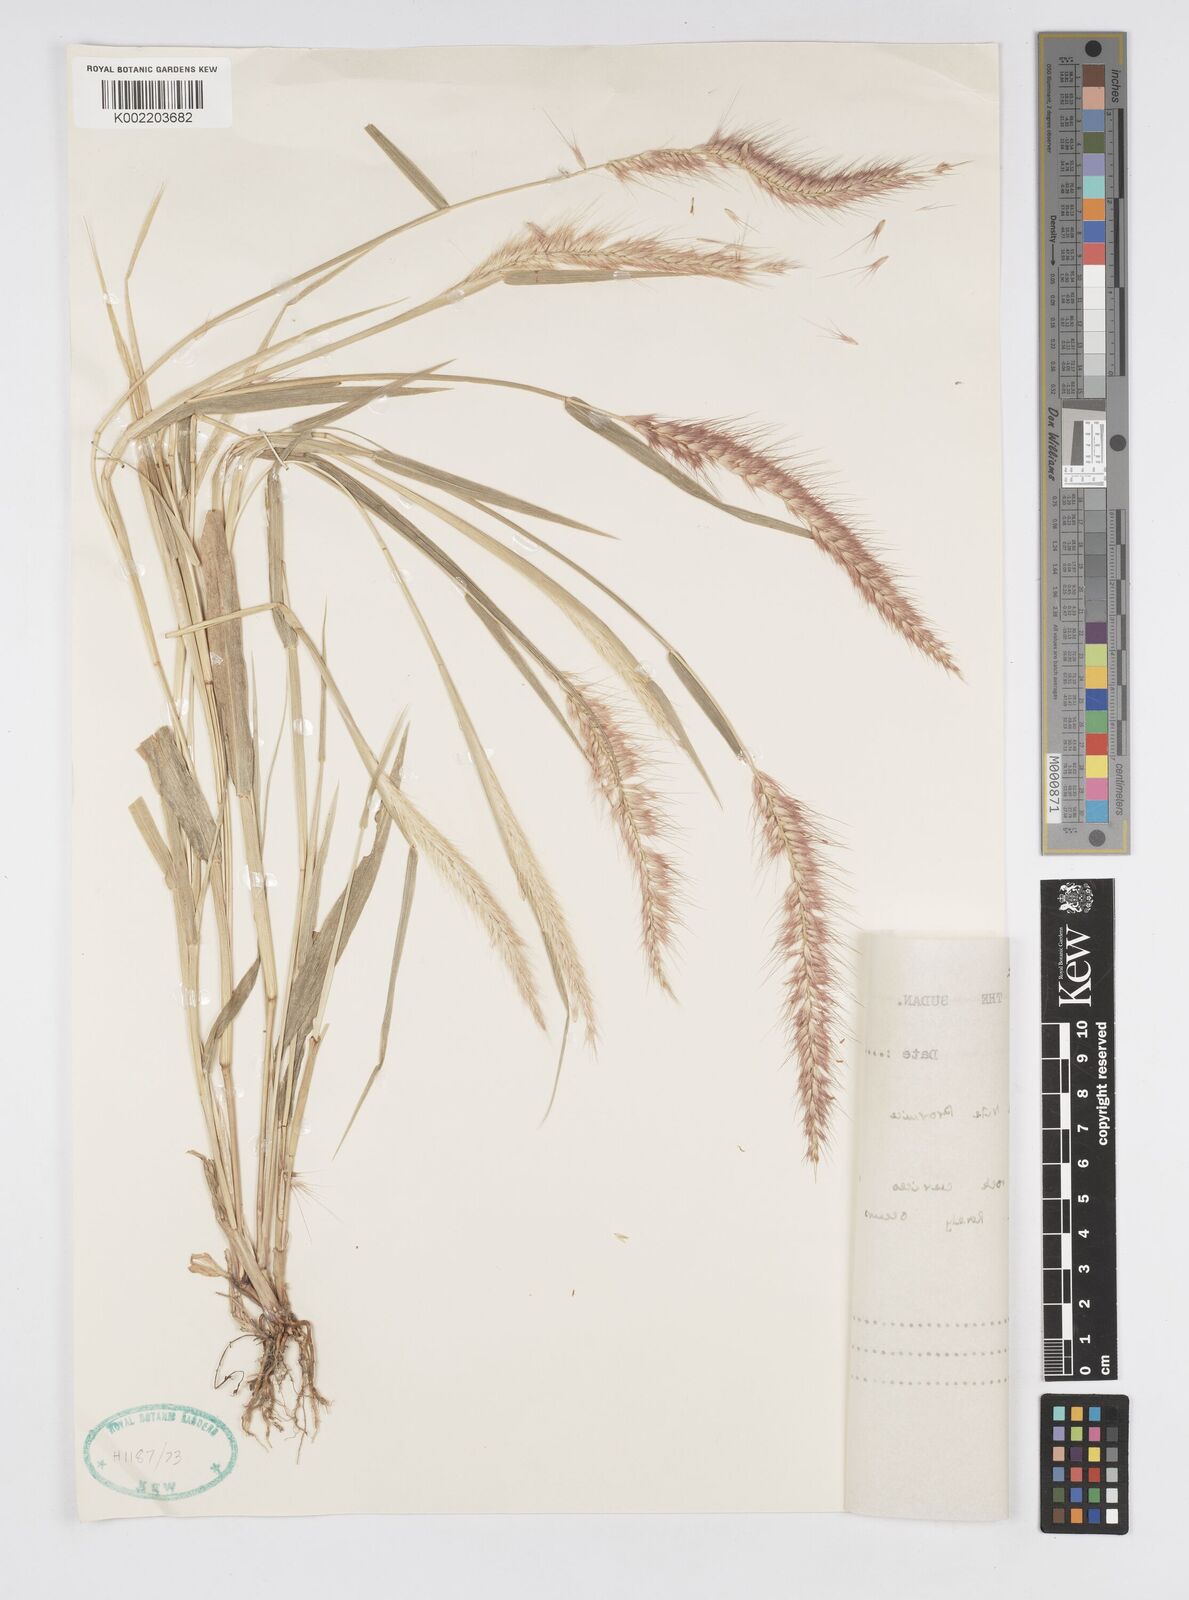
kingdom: Plantae
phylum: Tracheophyta
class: Liliopsida
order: Poales
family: Poaceae
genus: Setaria
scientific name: Setaria parviflora
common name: Knotroot bristle-grass
